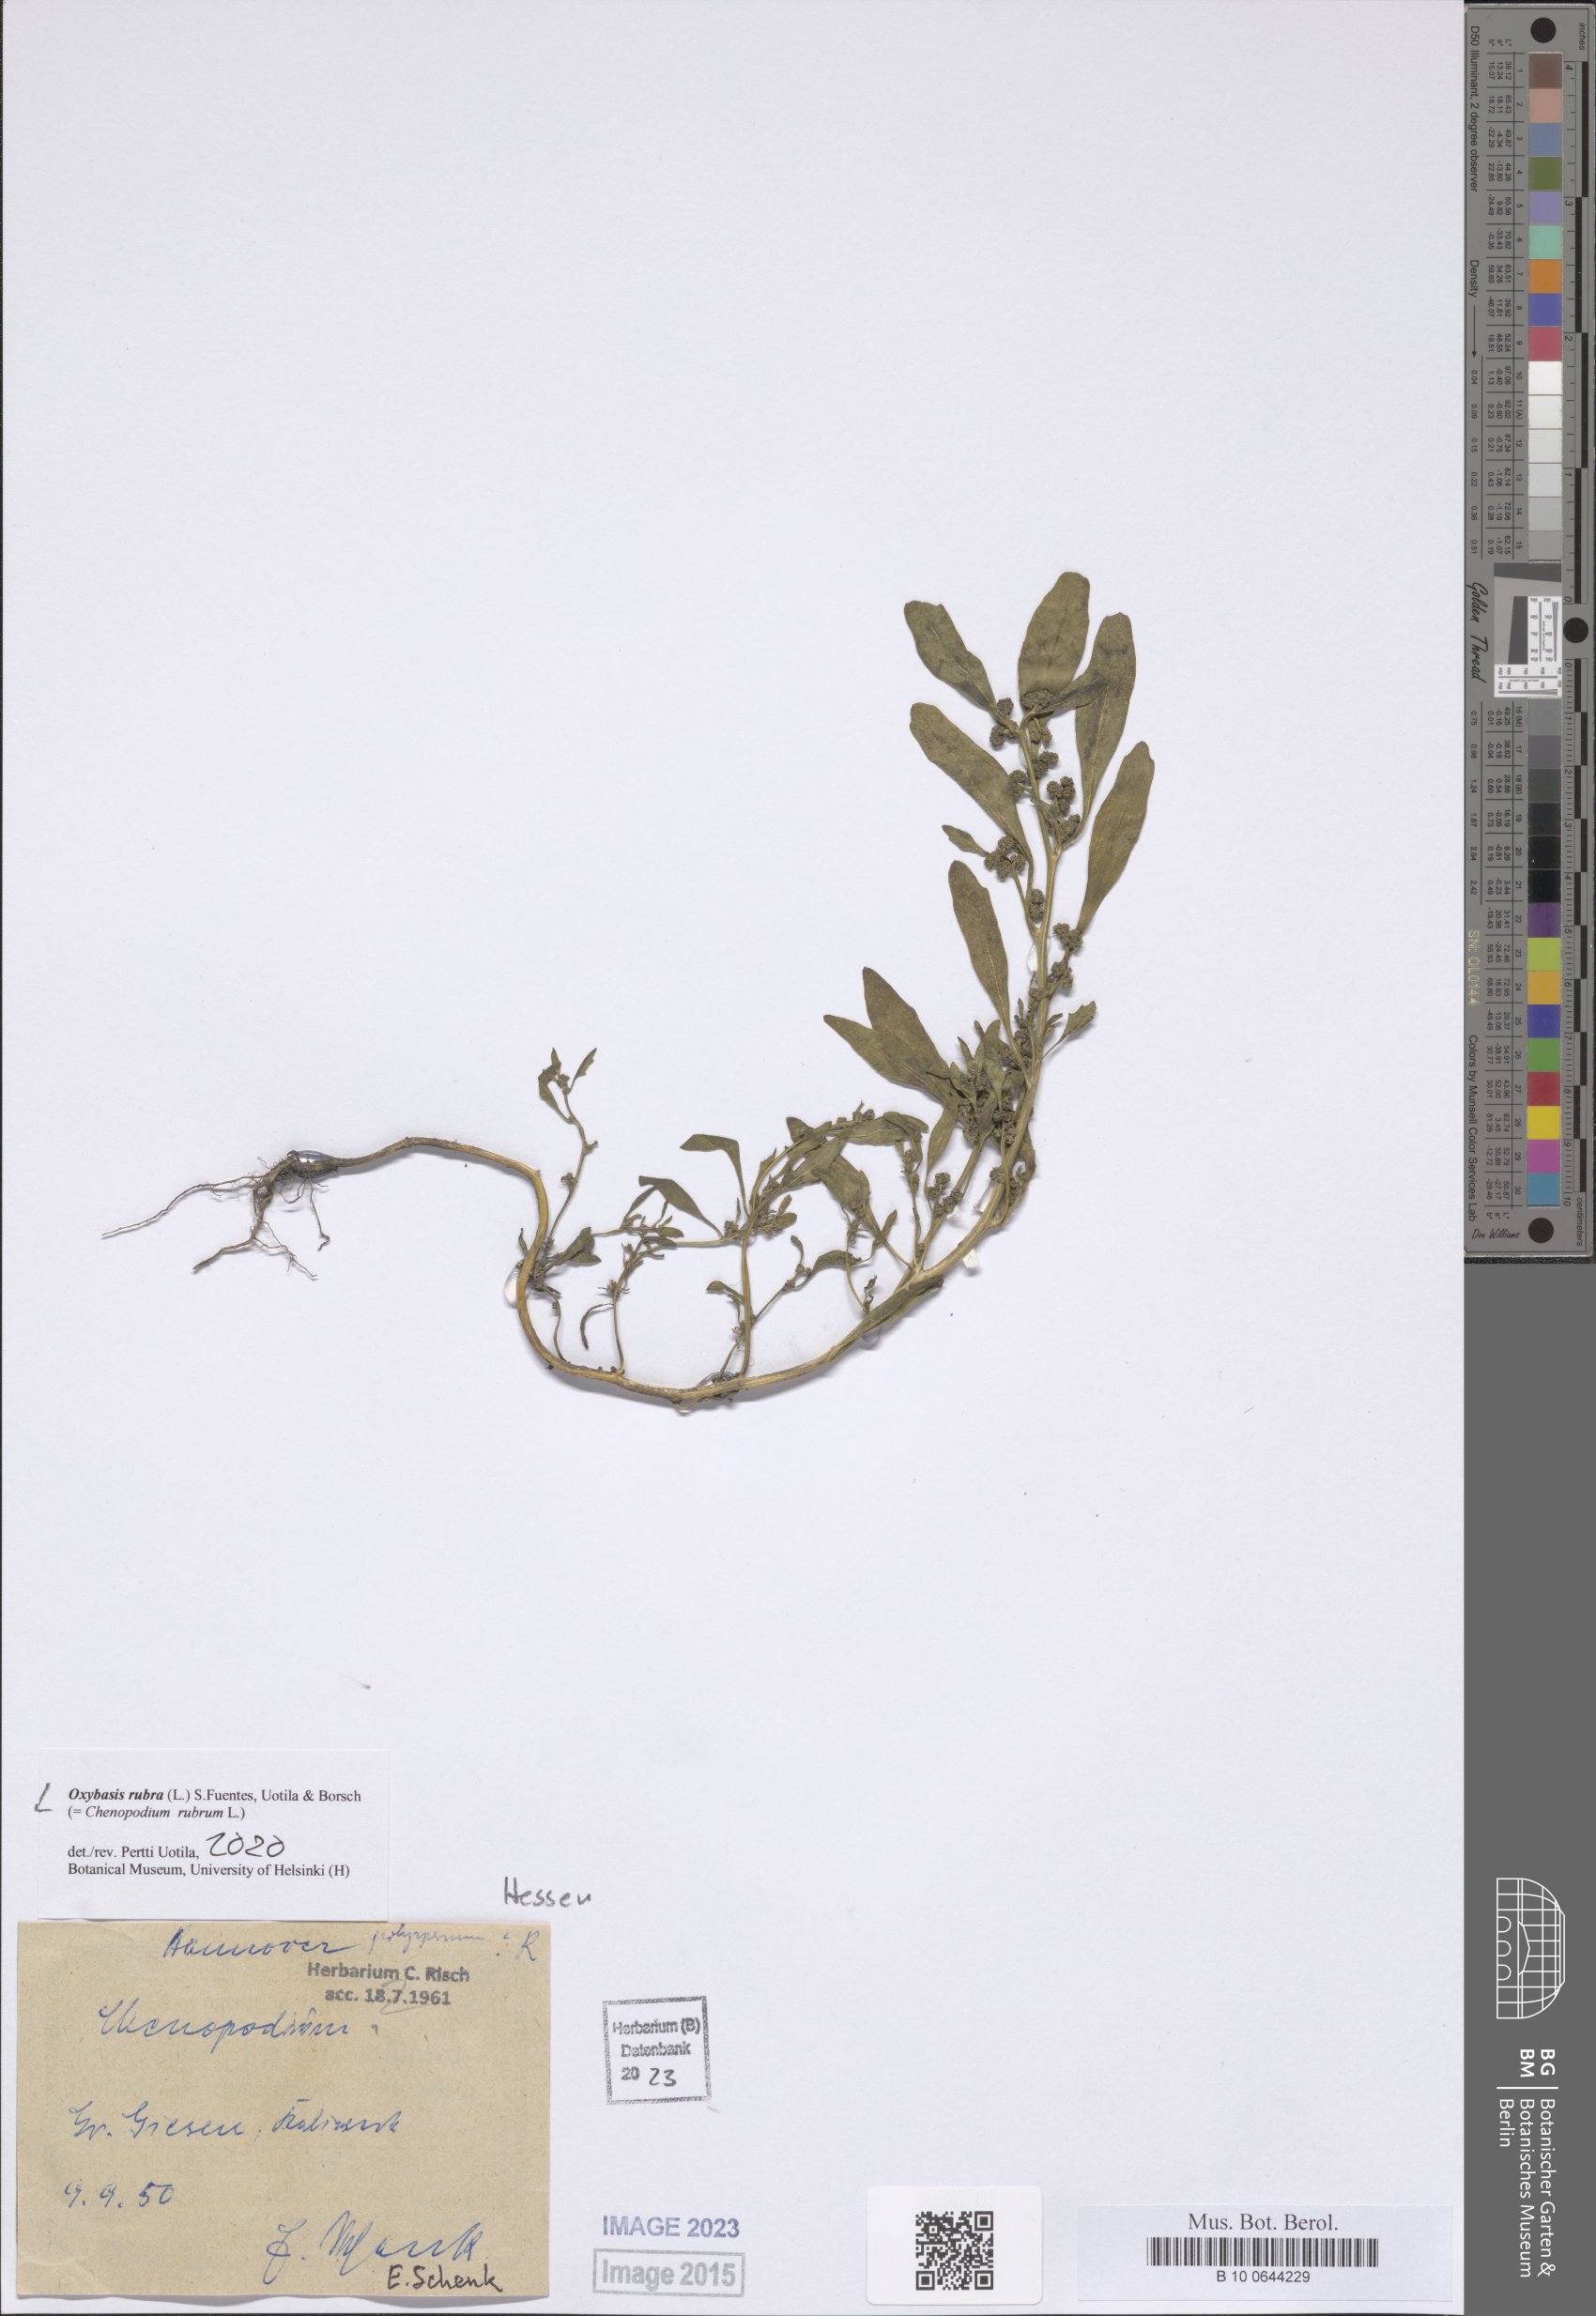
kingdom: Plantae
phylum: Tracheophyta
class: Magnoliopsida
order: Caryophyllales
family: Amaranthaceae
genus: Oxybasis
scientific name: Oxybasis glauca
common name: Glaucous goosefoot
